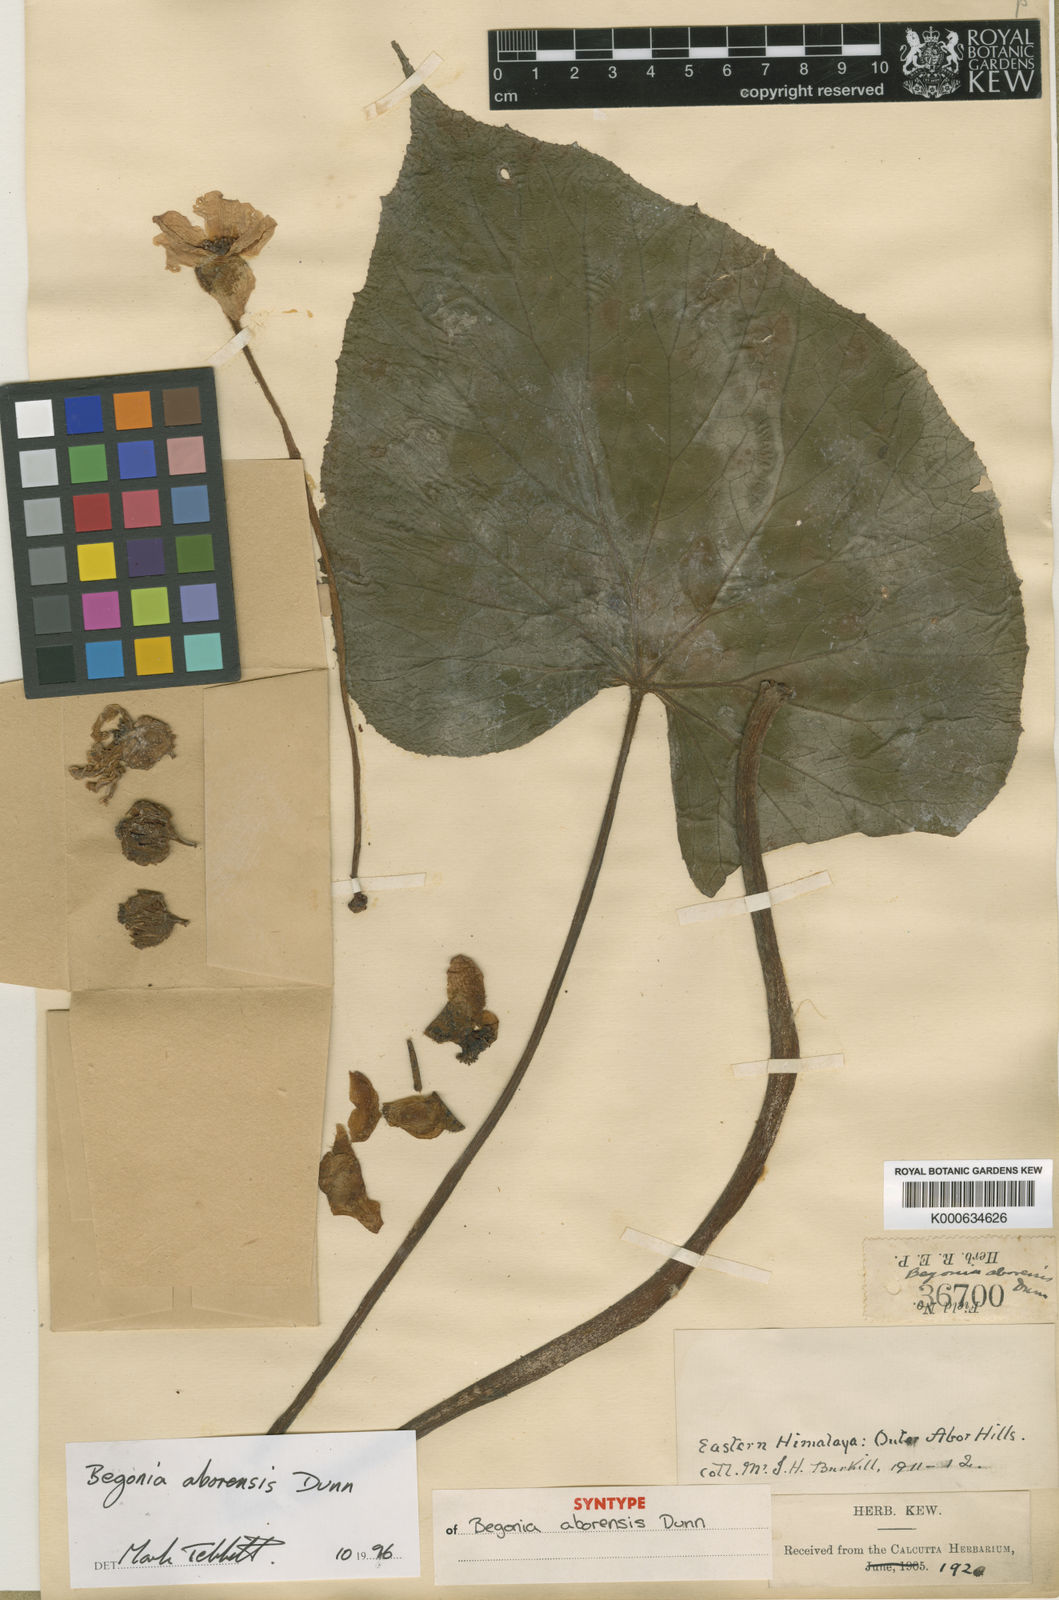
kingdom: Plantae
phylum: Tracheophyta
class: Magnoliopsida
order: Cucurbitales
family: Begoniaceae
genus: Begonia
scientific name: Begonia silletensis
